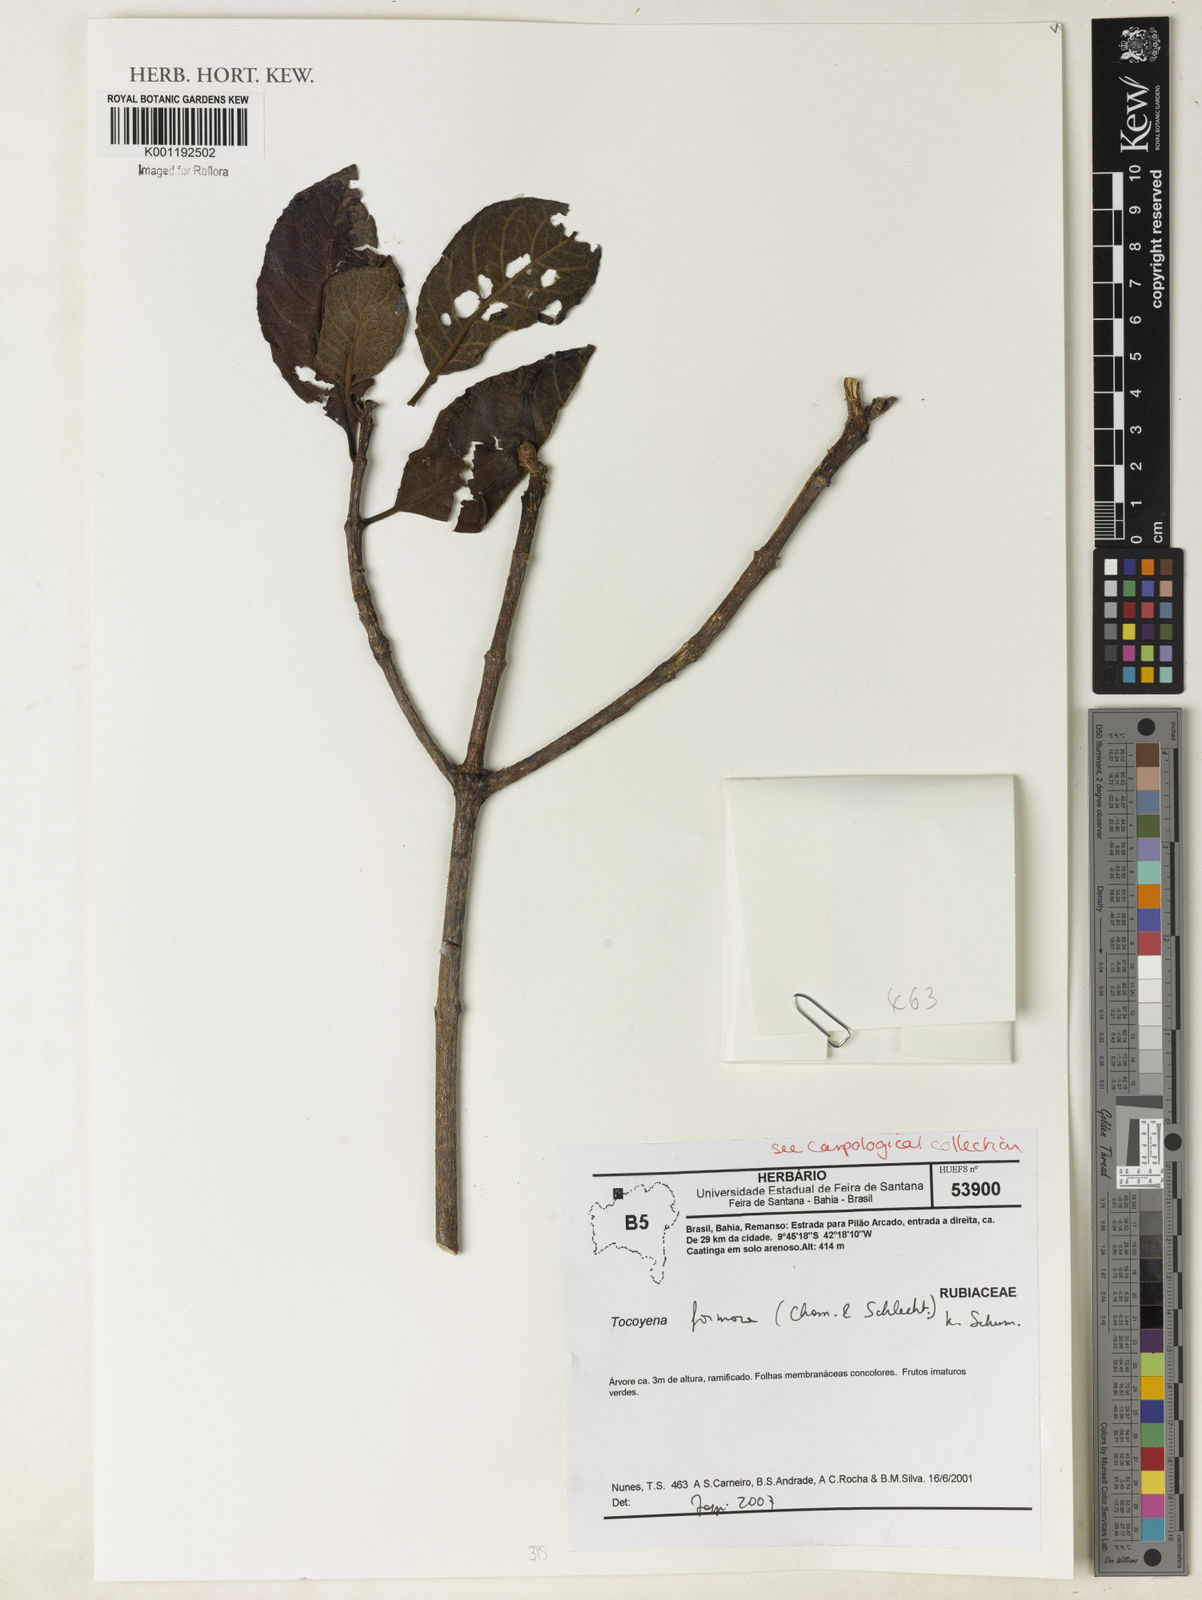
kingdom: Plantae
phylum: Tracheophyta
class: Magnoliopsida
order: Gentianales
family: Rubiaceae
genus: Tocoyena
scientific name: Tocoyena formosa
